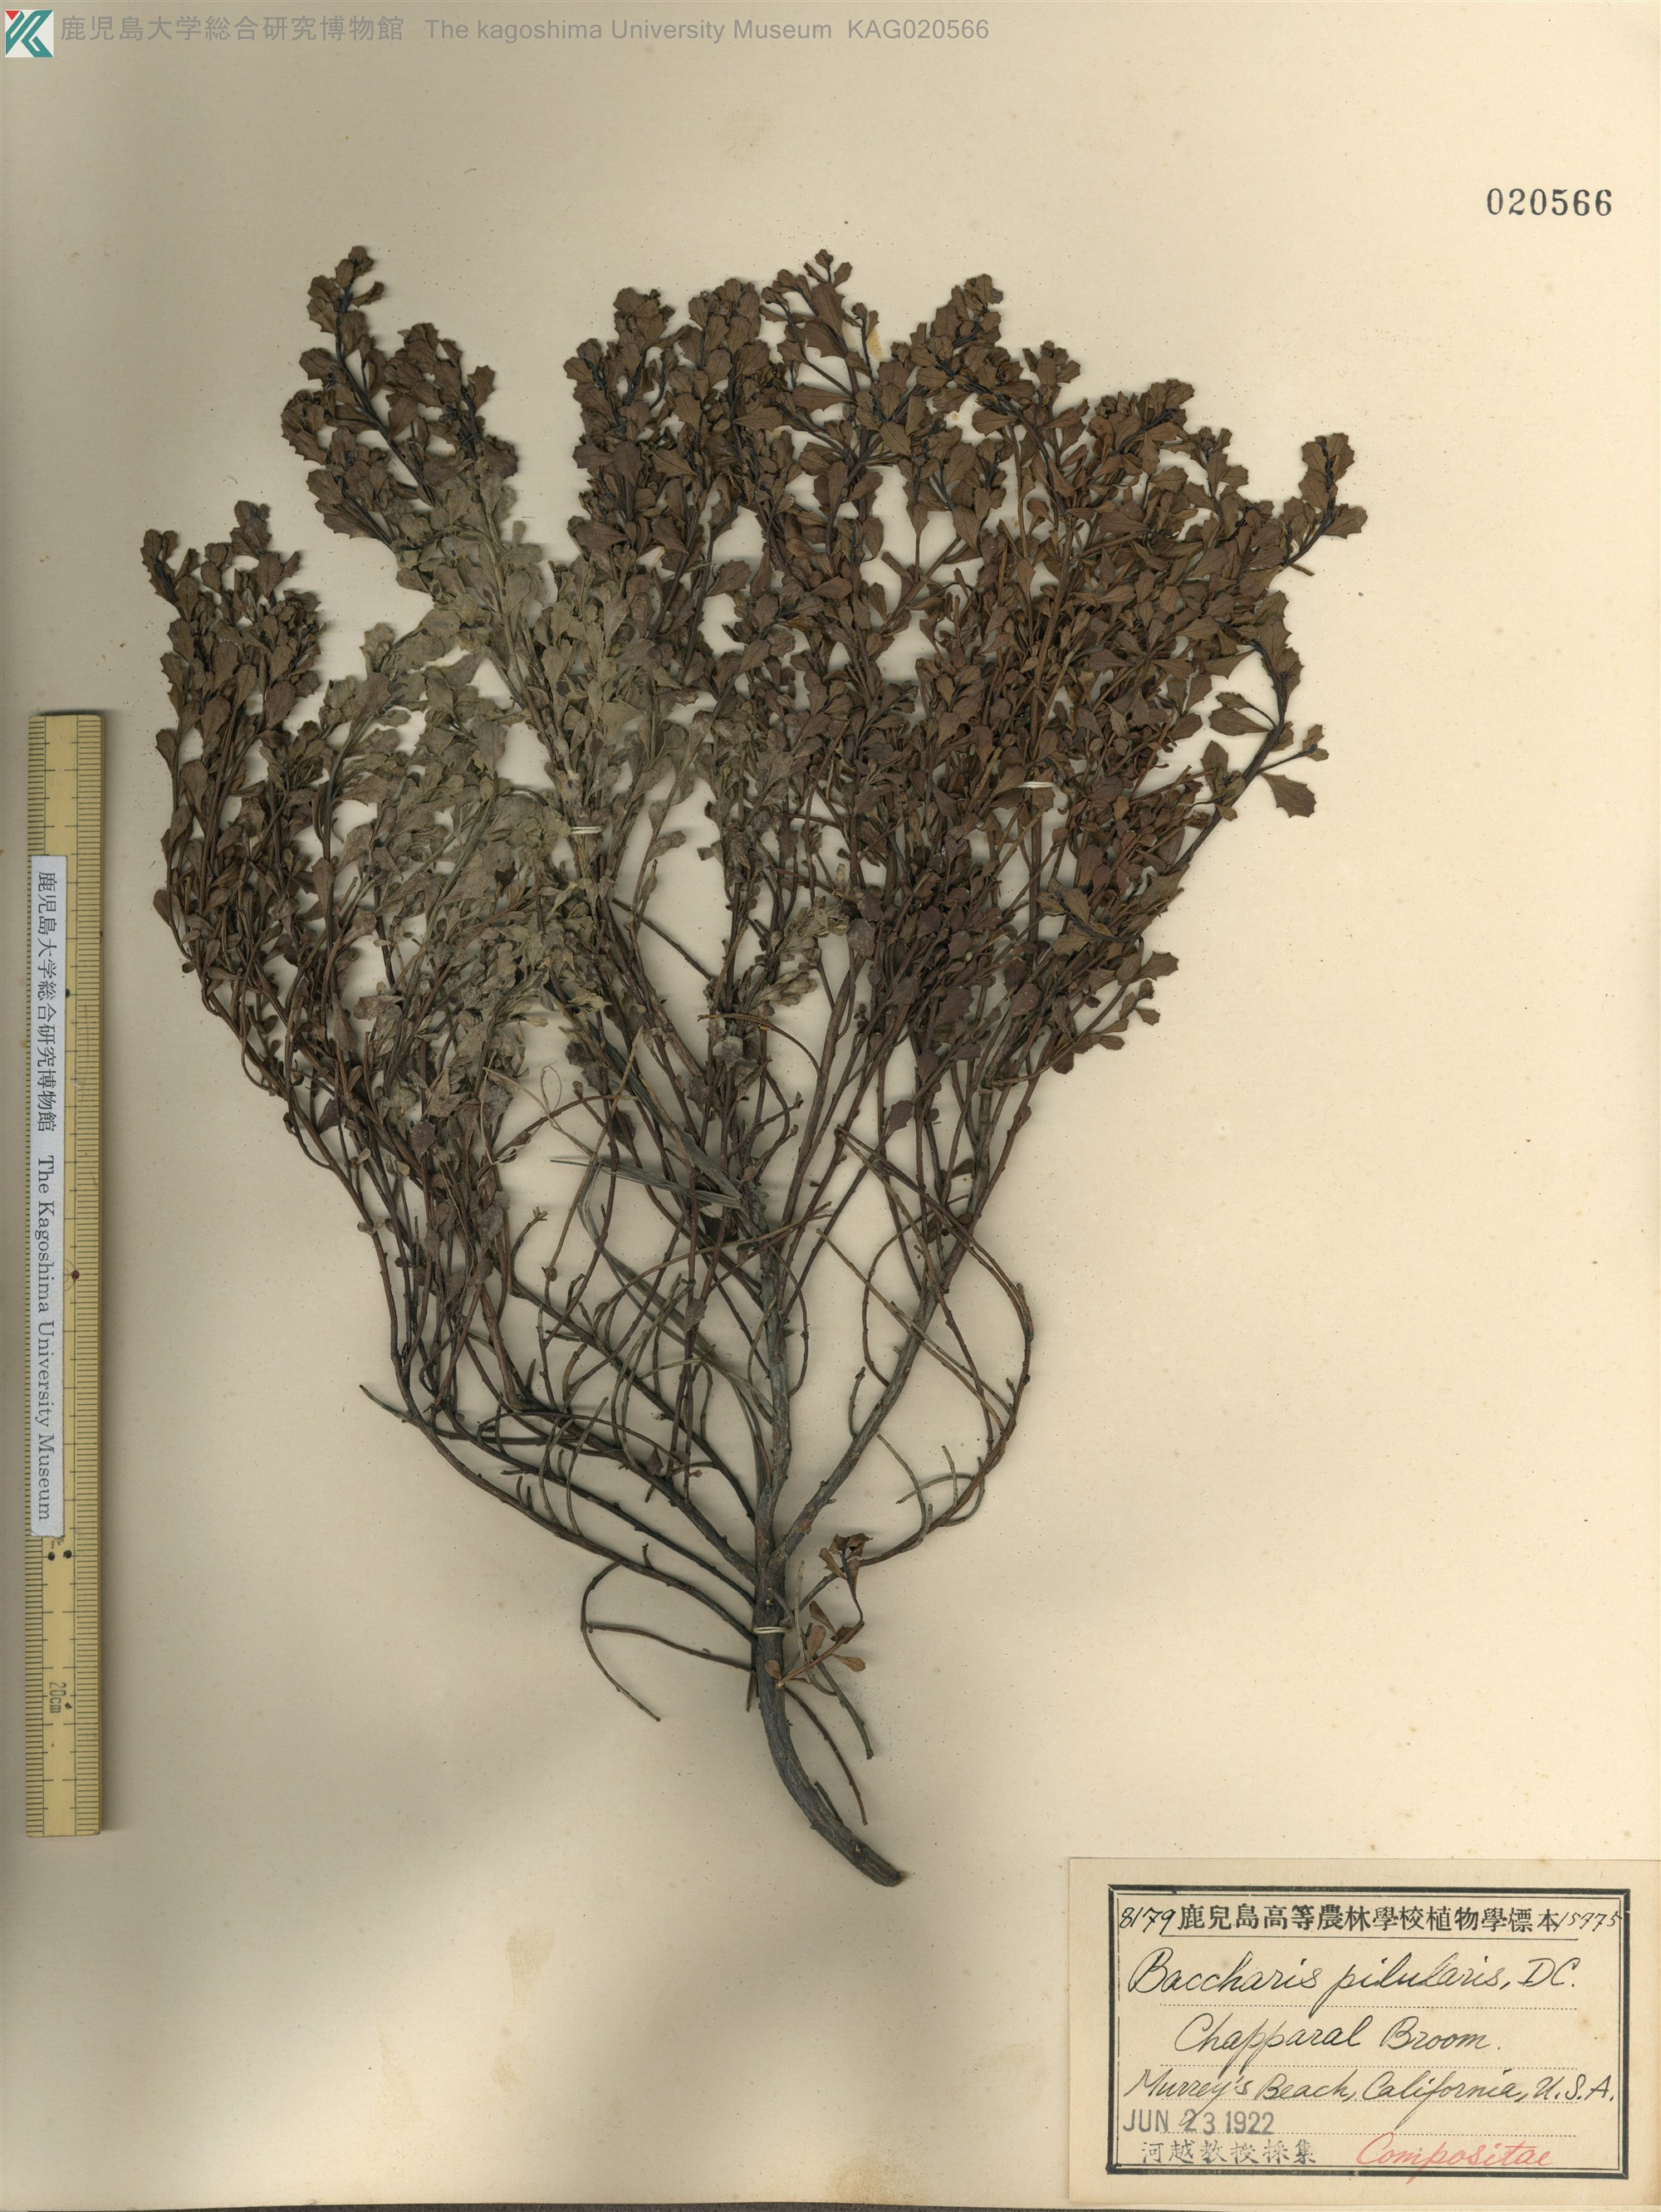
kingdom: Plantae
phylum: Tracheophyta
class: Magnoliopsida
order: Asterales
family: Asteraceae
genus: Baccharis
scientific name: Baccharis pilularis
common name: Coyotebrush
